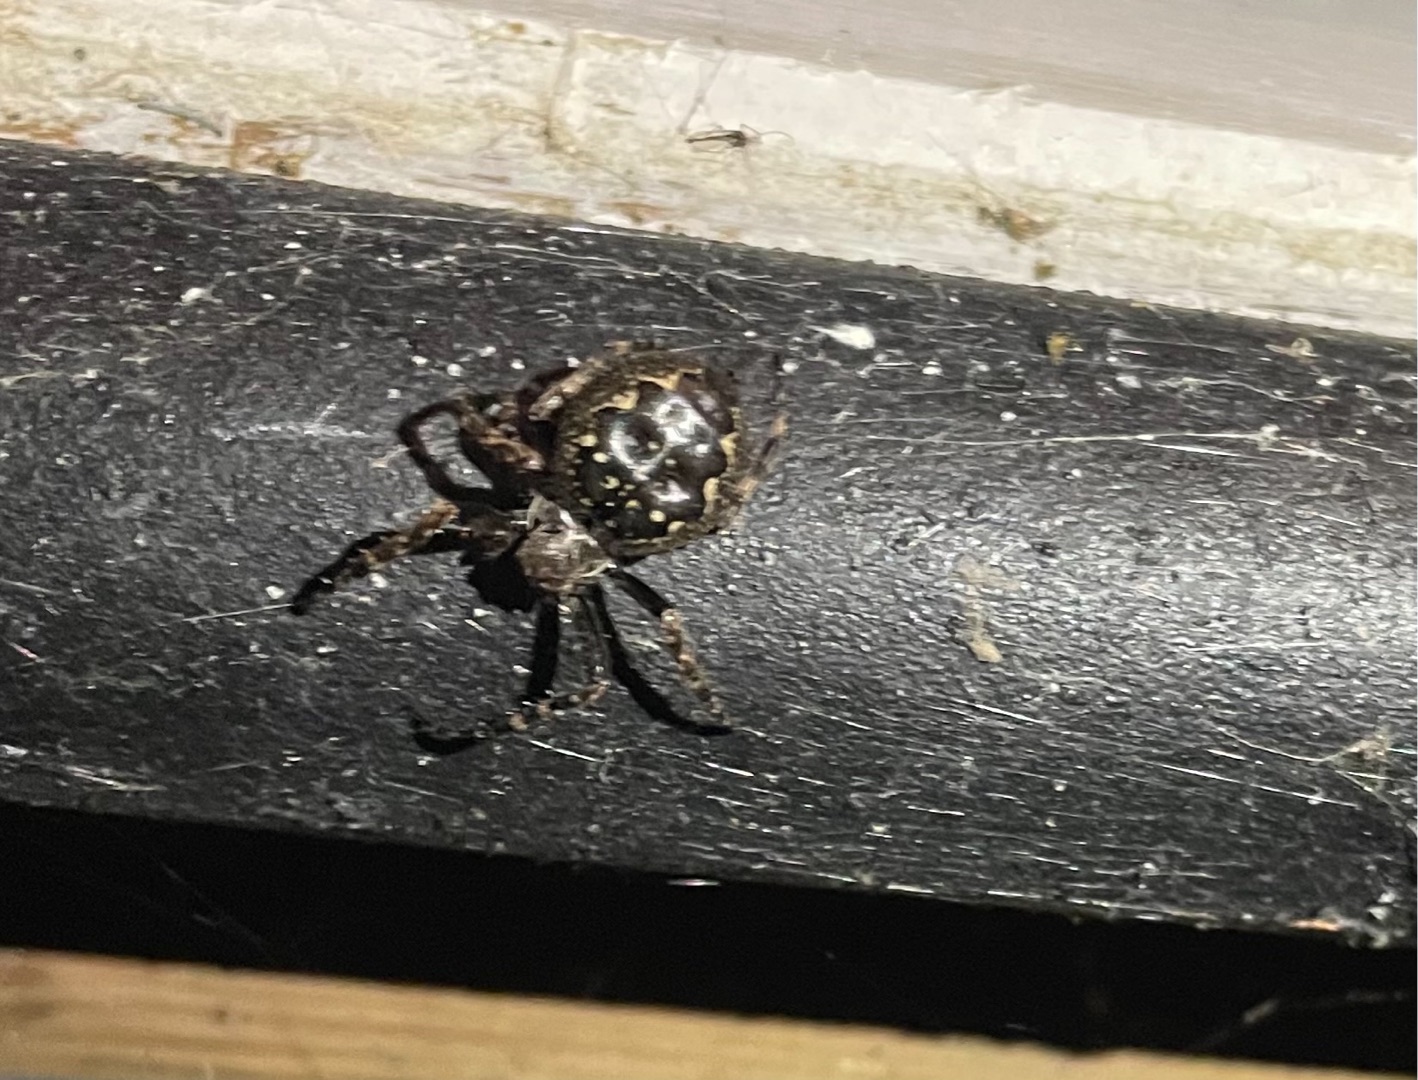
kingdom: Animalia
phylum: Arthropoda
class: Arachnida
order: Araneae
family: Araneidae
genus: Nuctenea
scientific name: Nuctenea umbratica
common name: Flad hjulspinder
